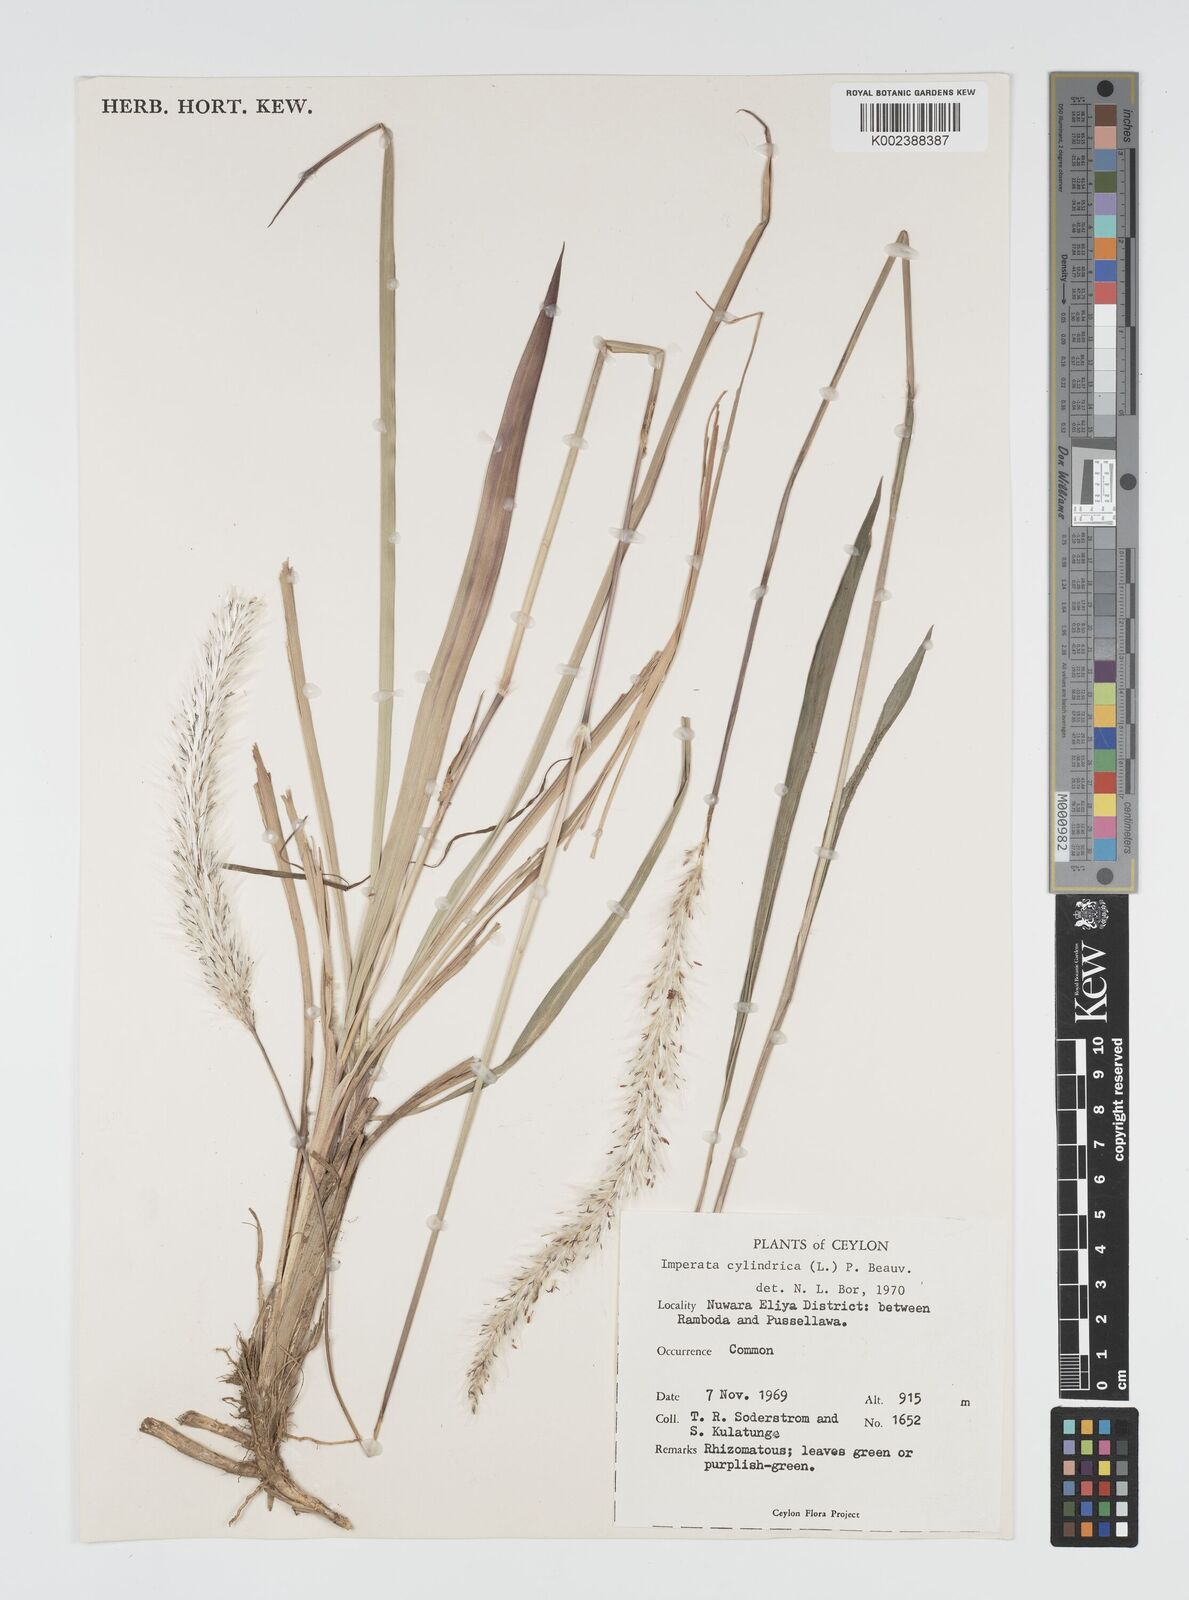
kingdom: Plantae
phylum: Tracheophyta
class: Liliopsida
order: Poales
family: Poaceae
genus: Imperata
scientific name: Imperata cylindrica
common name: Cogongrass
